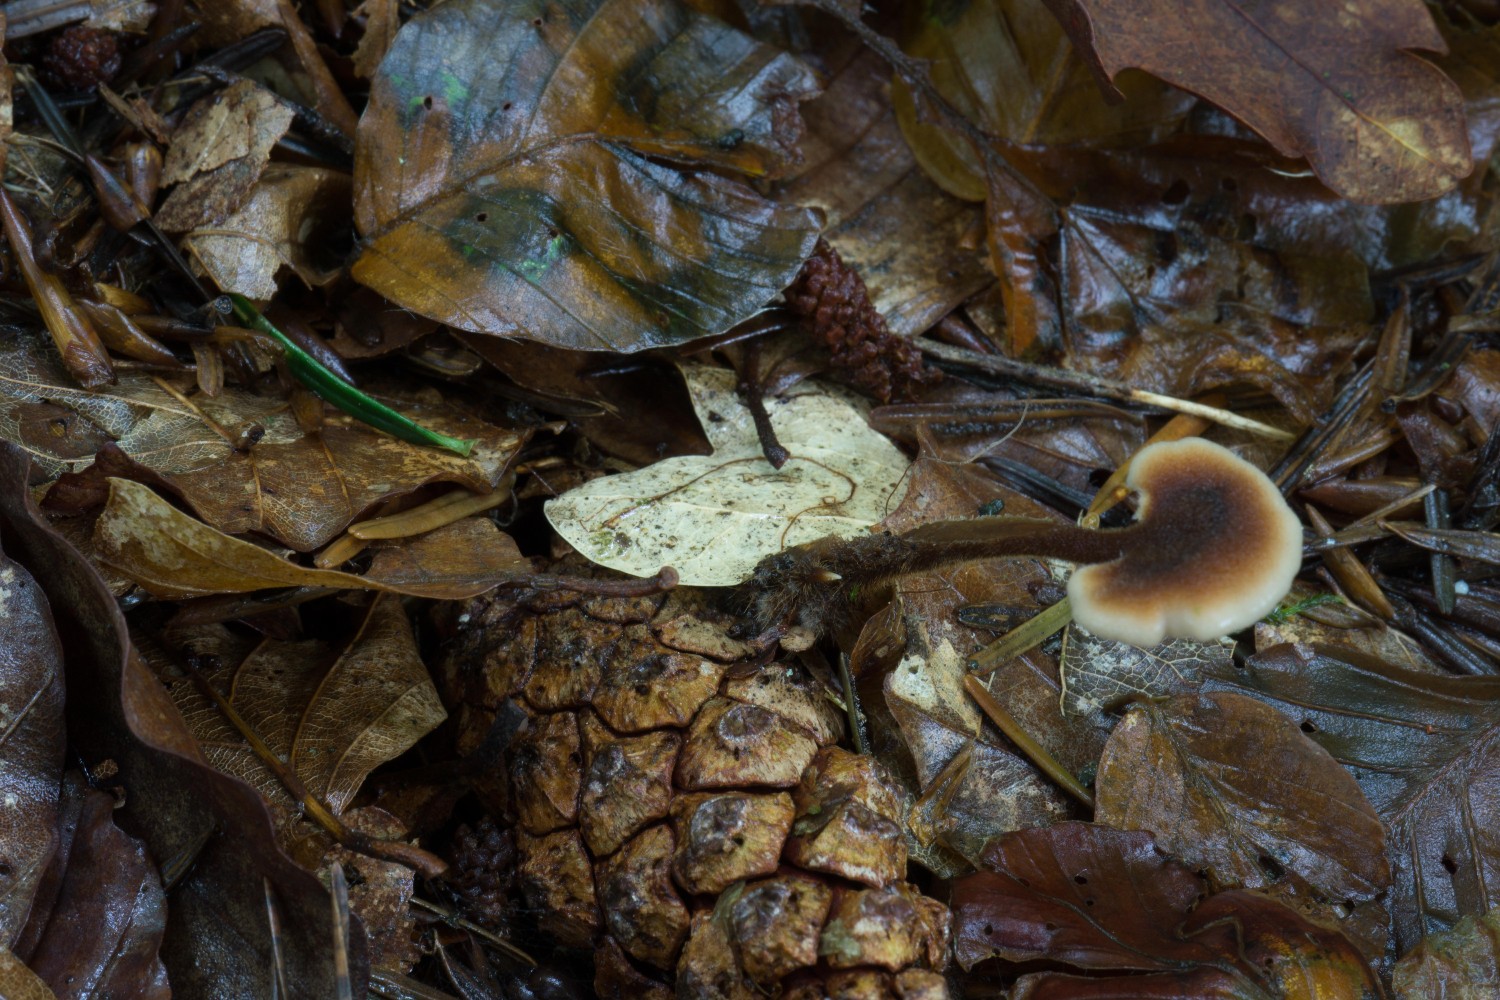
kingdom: Fungi
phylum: Basidiomycota
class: Agaricomycetes
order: Russulales
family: Auriscalpiaceae
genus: Auriscalpium
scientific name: Auriscalpium vulgare
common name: koglepigsvamp
